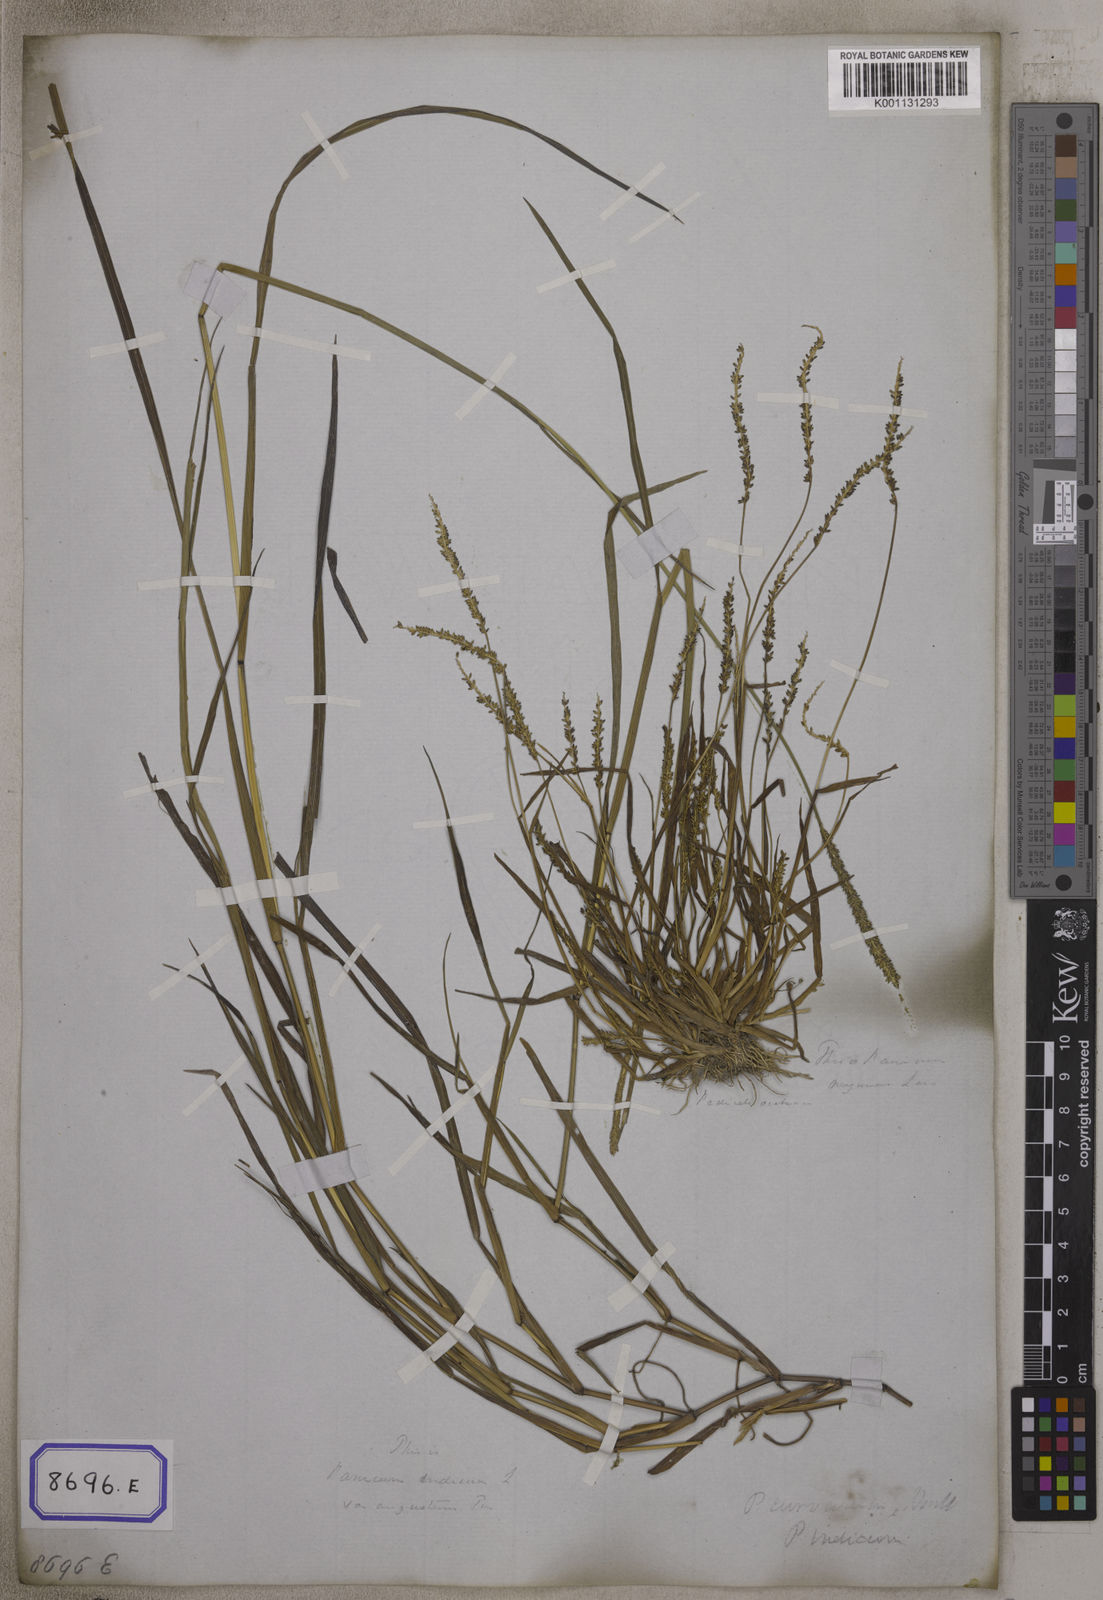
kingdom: Plantae
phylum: Tracheophyta
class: Liliopsida
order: Poales
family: Poaceae
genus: Panicum
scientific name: Panicum
